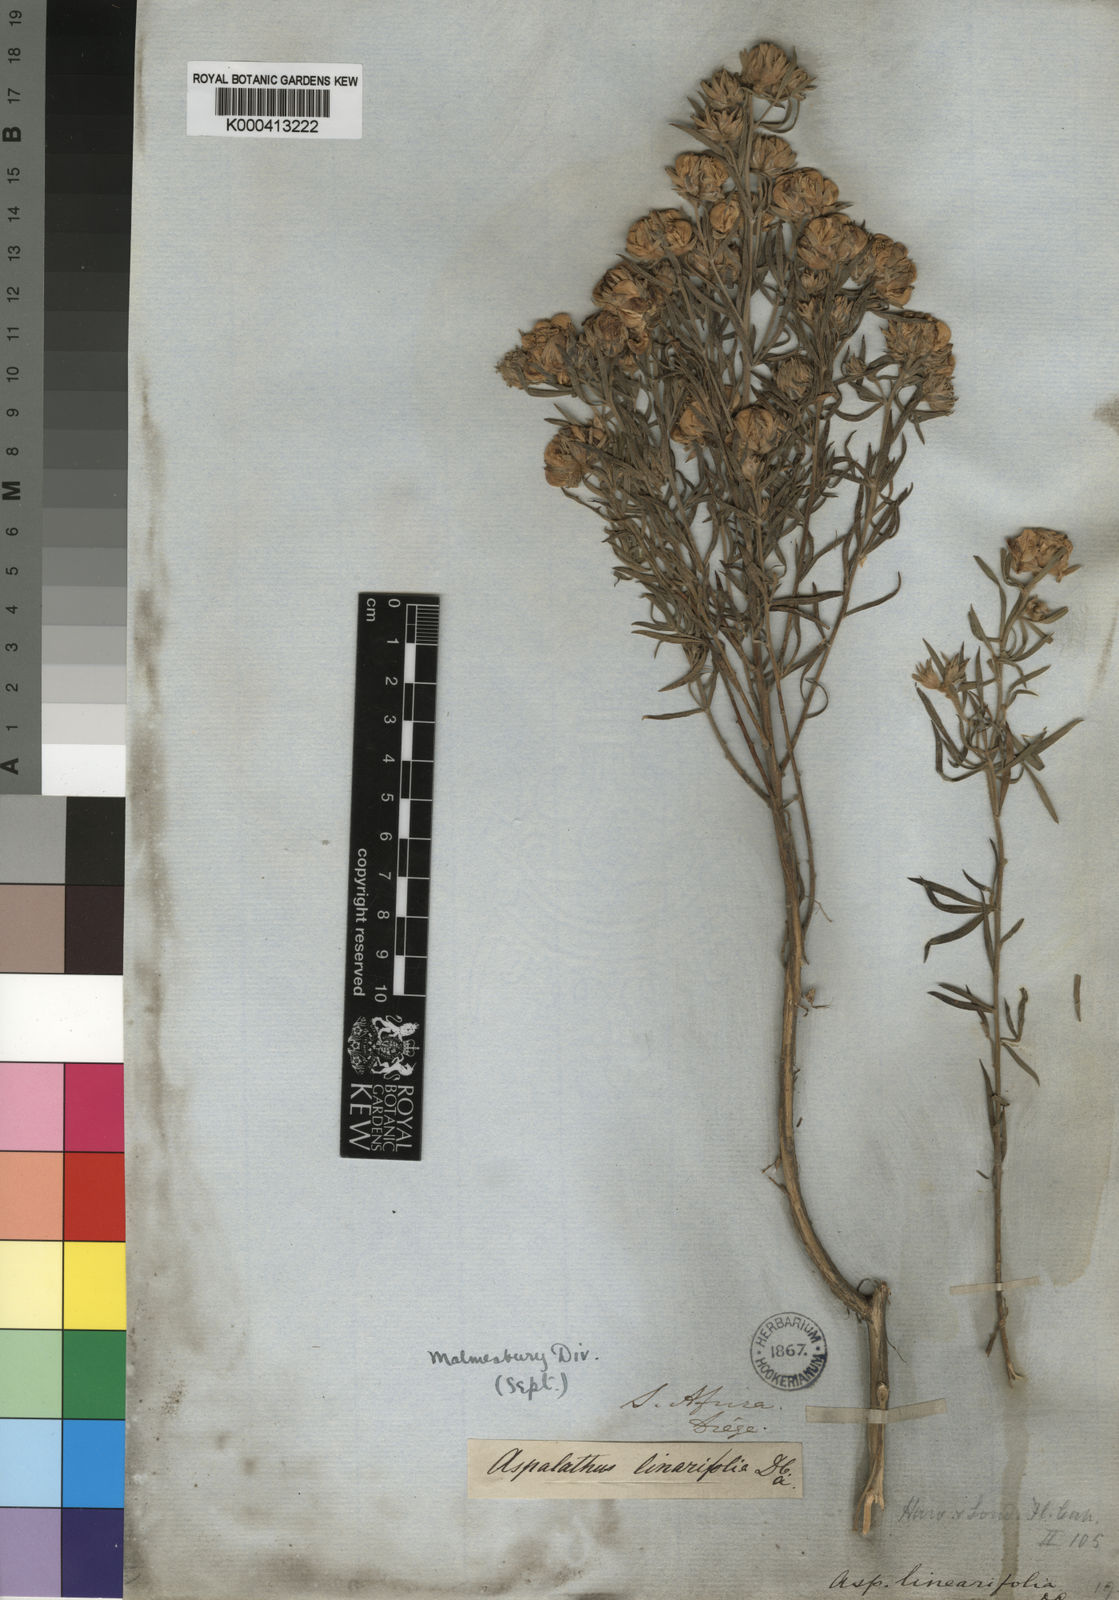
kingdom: Plantae
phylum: Tracheophyta
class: Magnoliopsida
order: Fabales
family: Fabaceae
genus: Aspalathus
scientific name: Aspalathus rugosa
